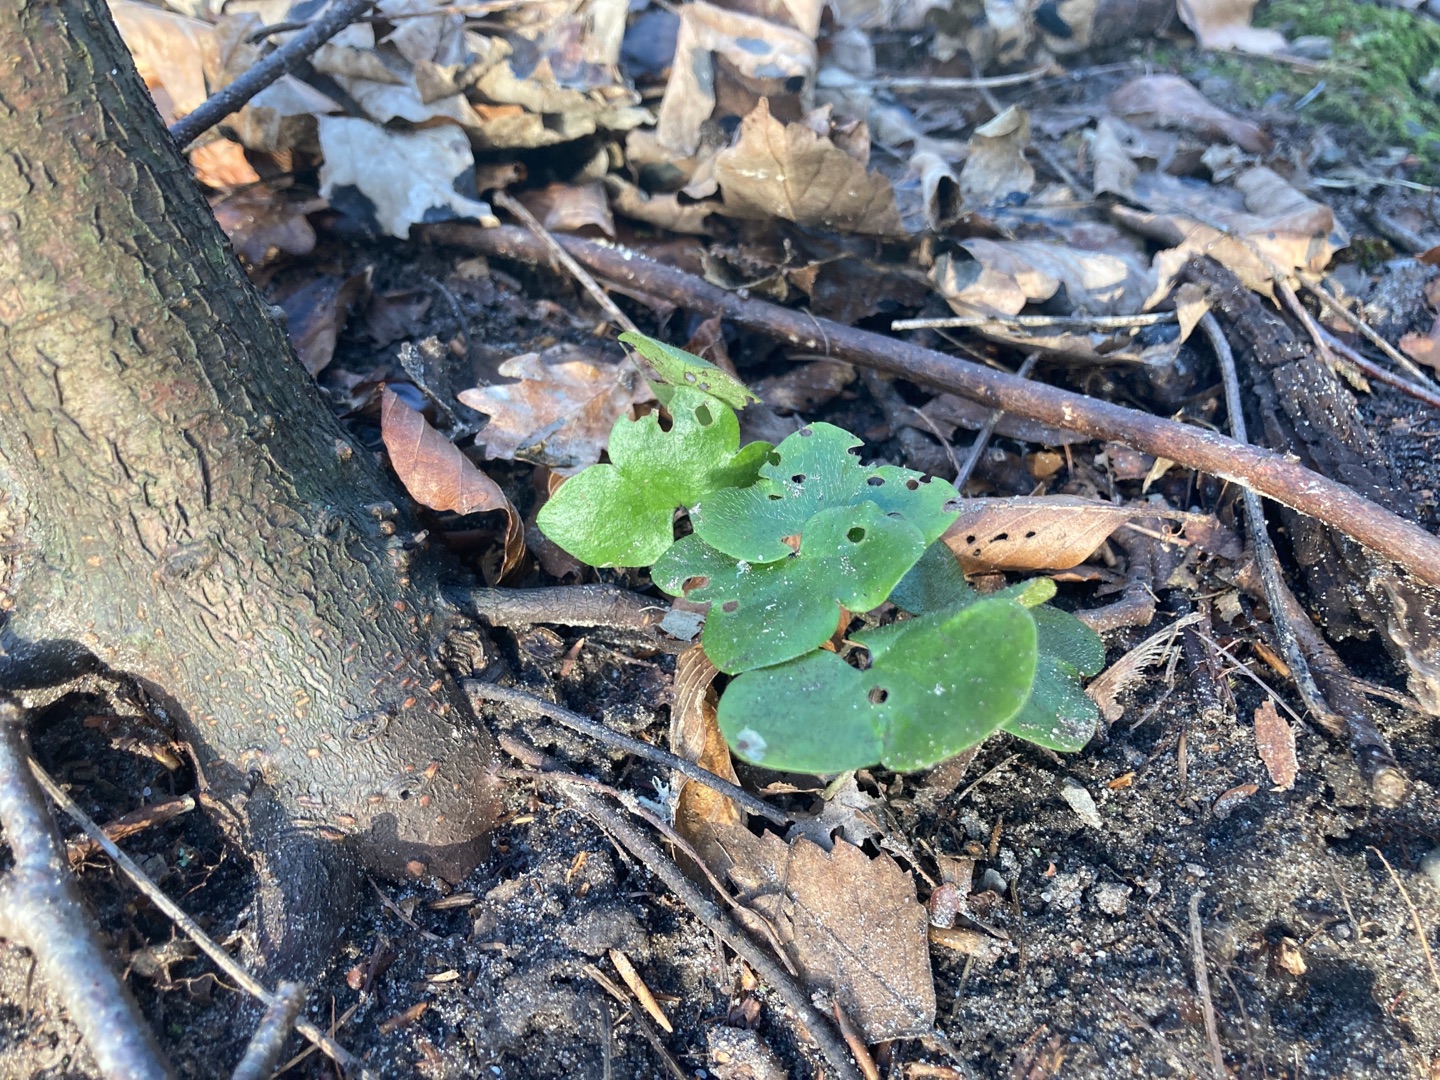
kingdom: Plantae
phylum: Tracheophyta
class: Magnoliopsida
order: Ranunculales
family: Ranunculaceae
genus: Hepatica
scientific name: Hepatica nobilis
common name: Blå anemone
